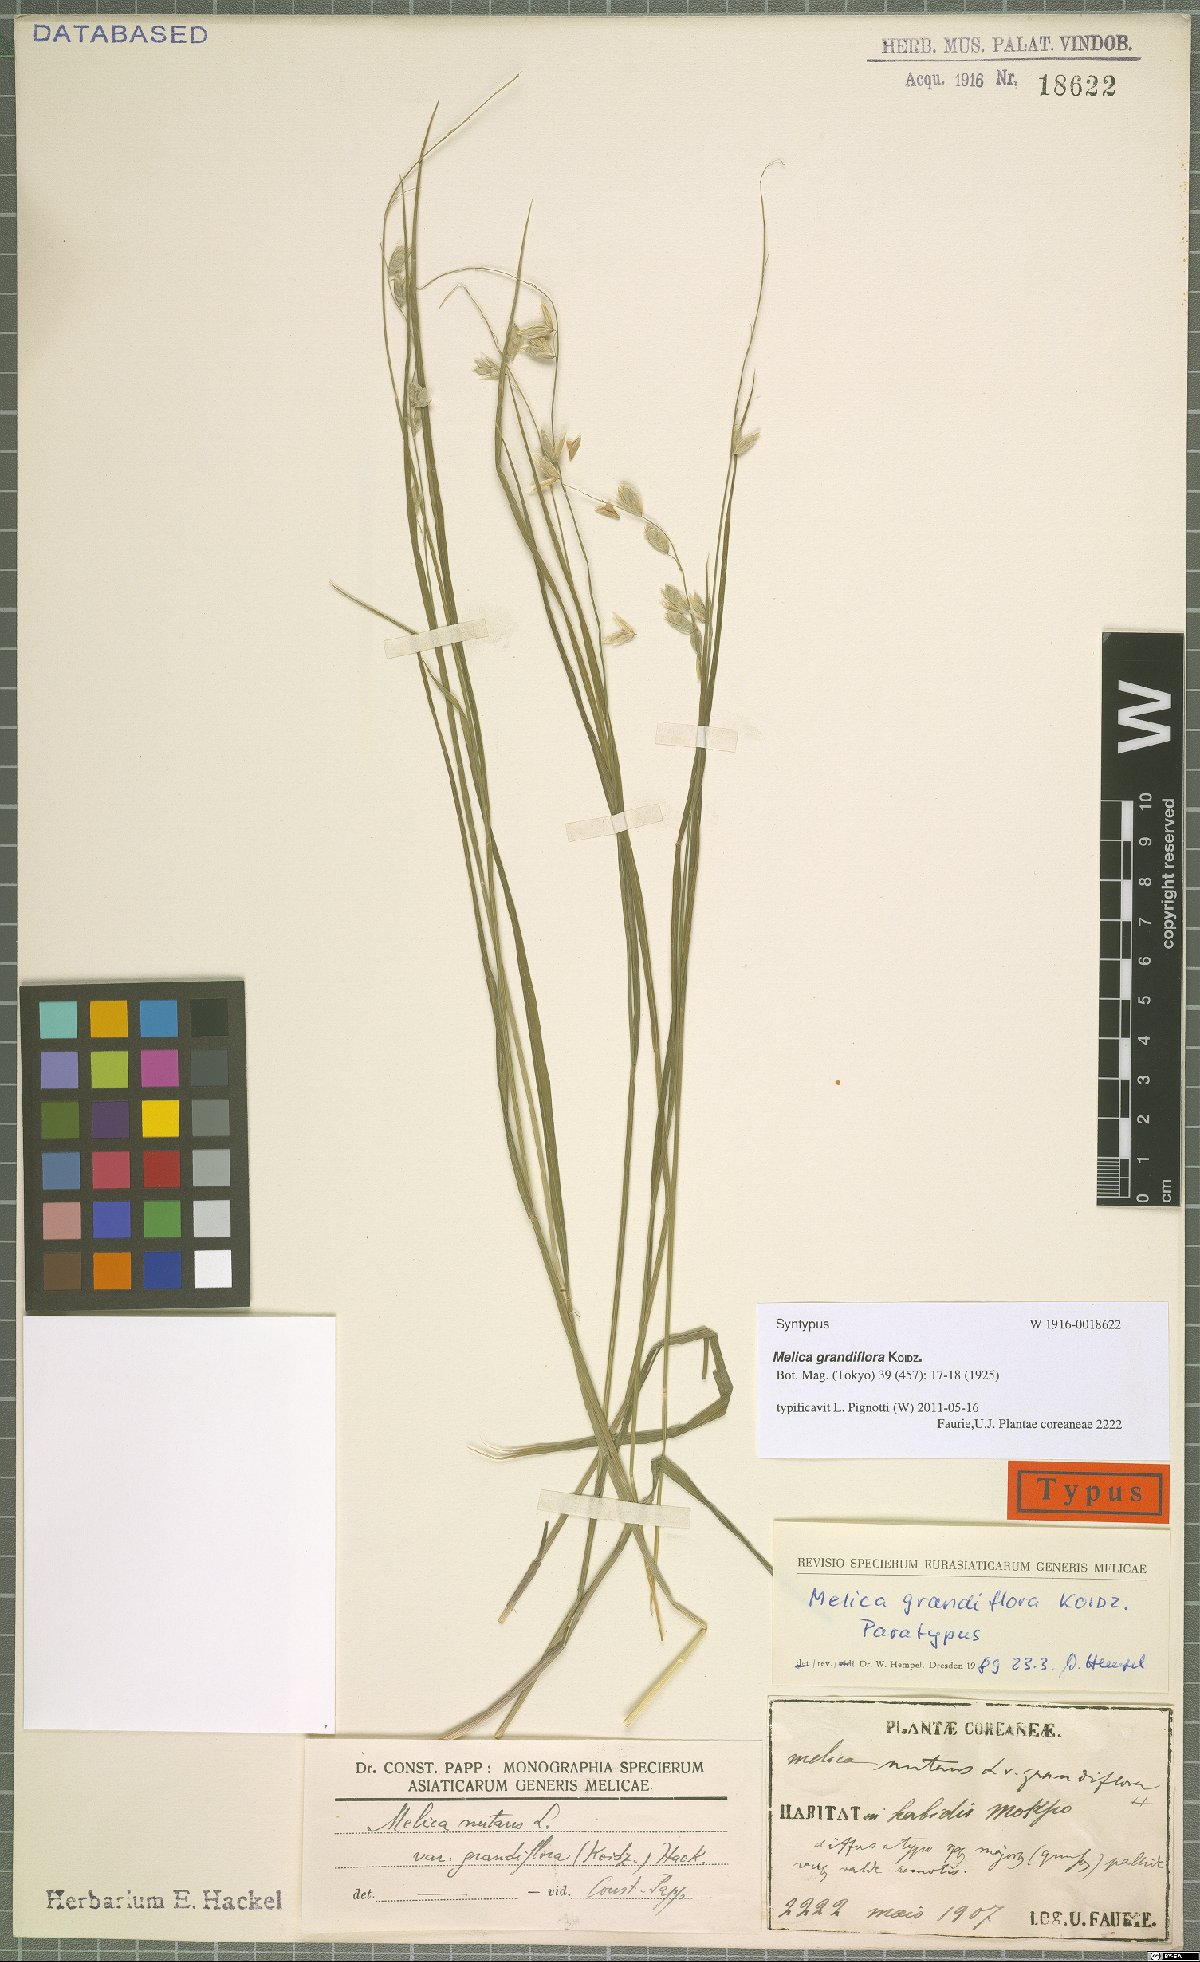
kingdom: Plantae
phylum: Tracheophyta
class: Liliopsida
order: Poales
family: Poaceae
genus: Melica
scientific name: Melica nutans
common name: Mountain melick
